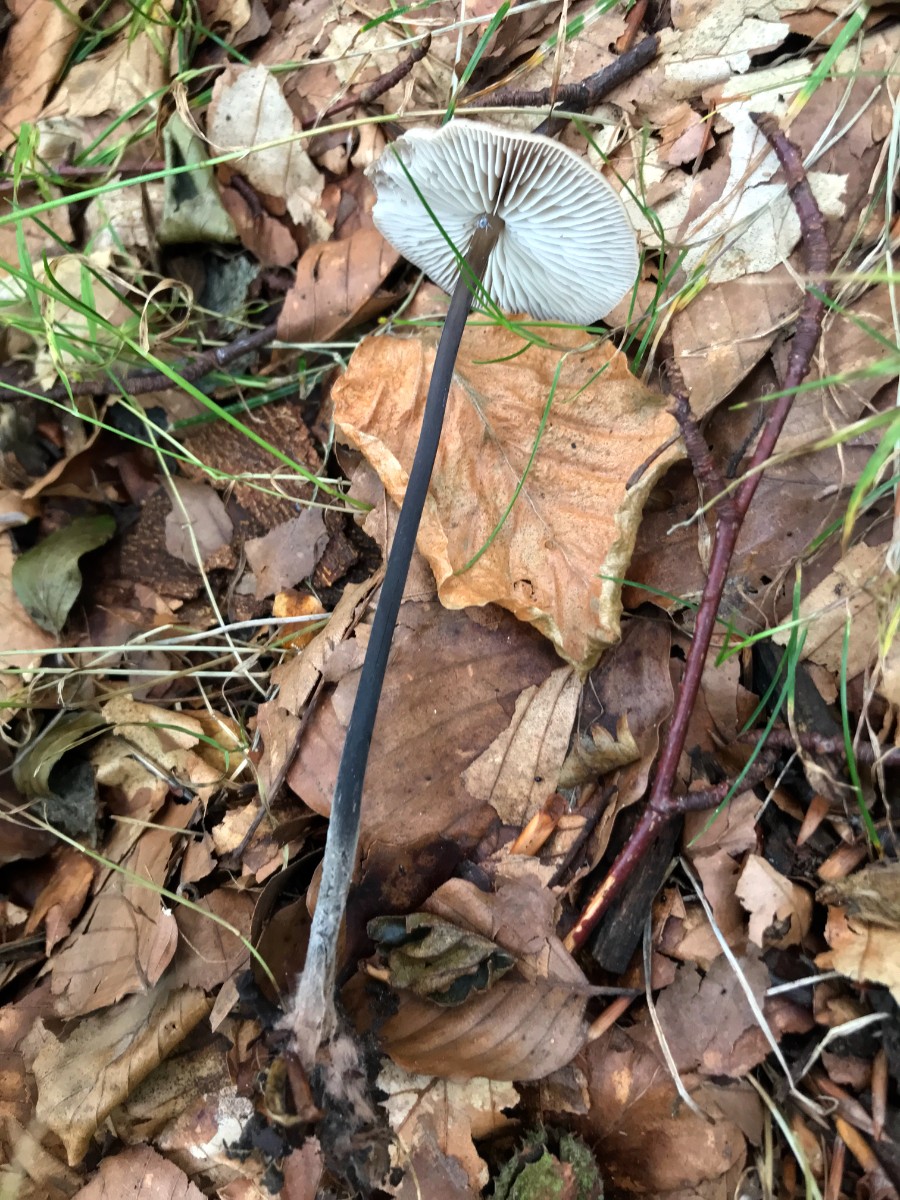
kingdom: Fungi
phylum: Basidiomycota
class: Agaricomycetes
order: Agaricales
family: Omphalotaceae
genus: Mycetinis
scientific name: Mycetinis alliaceus
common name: stor løghat
